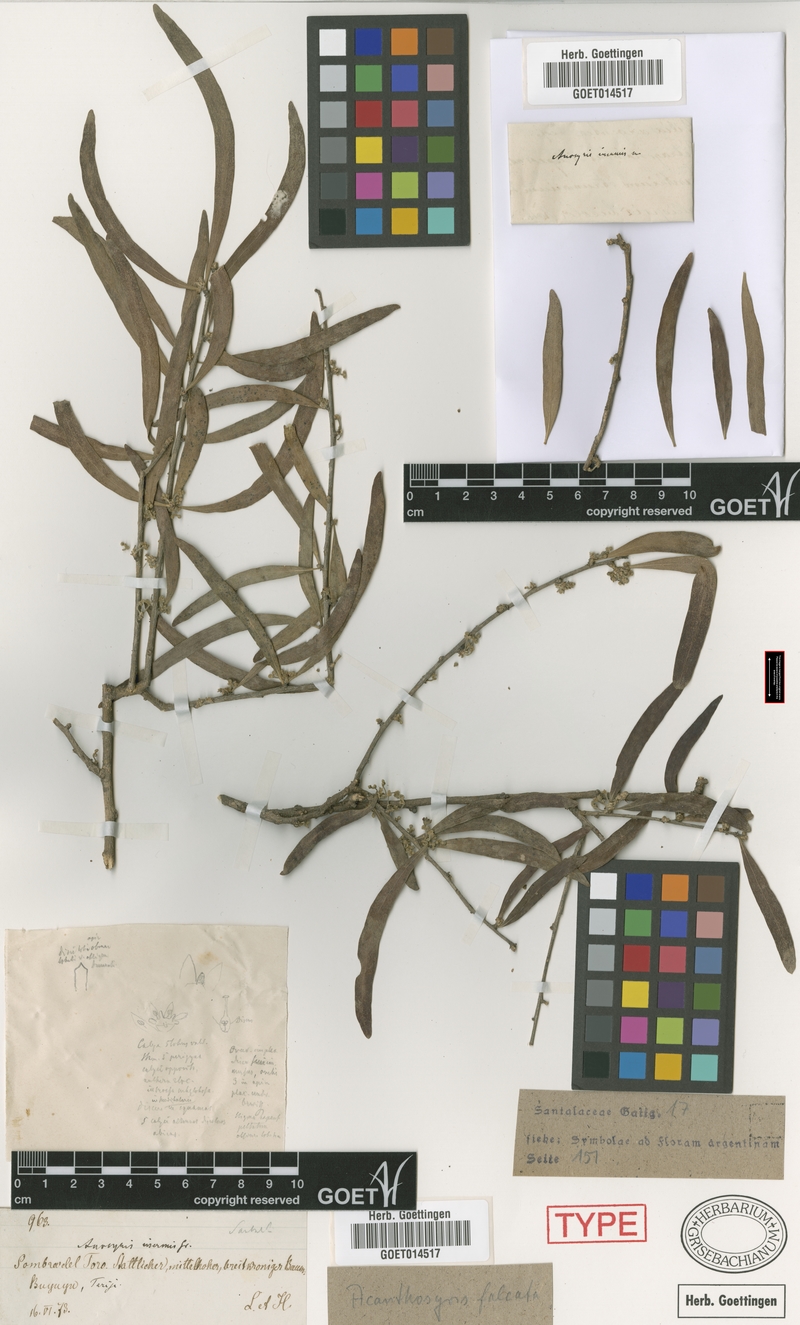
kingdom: Plantae
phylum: Tracheophyta
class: Magnoliopsida
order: Santalales
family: Cervantesiaceae
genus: Acanthosyris
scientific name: Acanthosyris falcata
